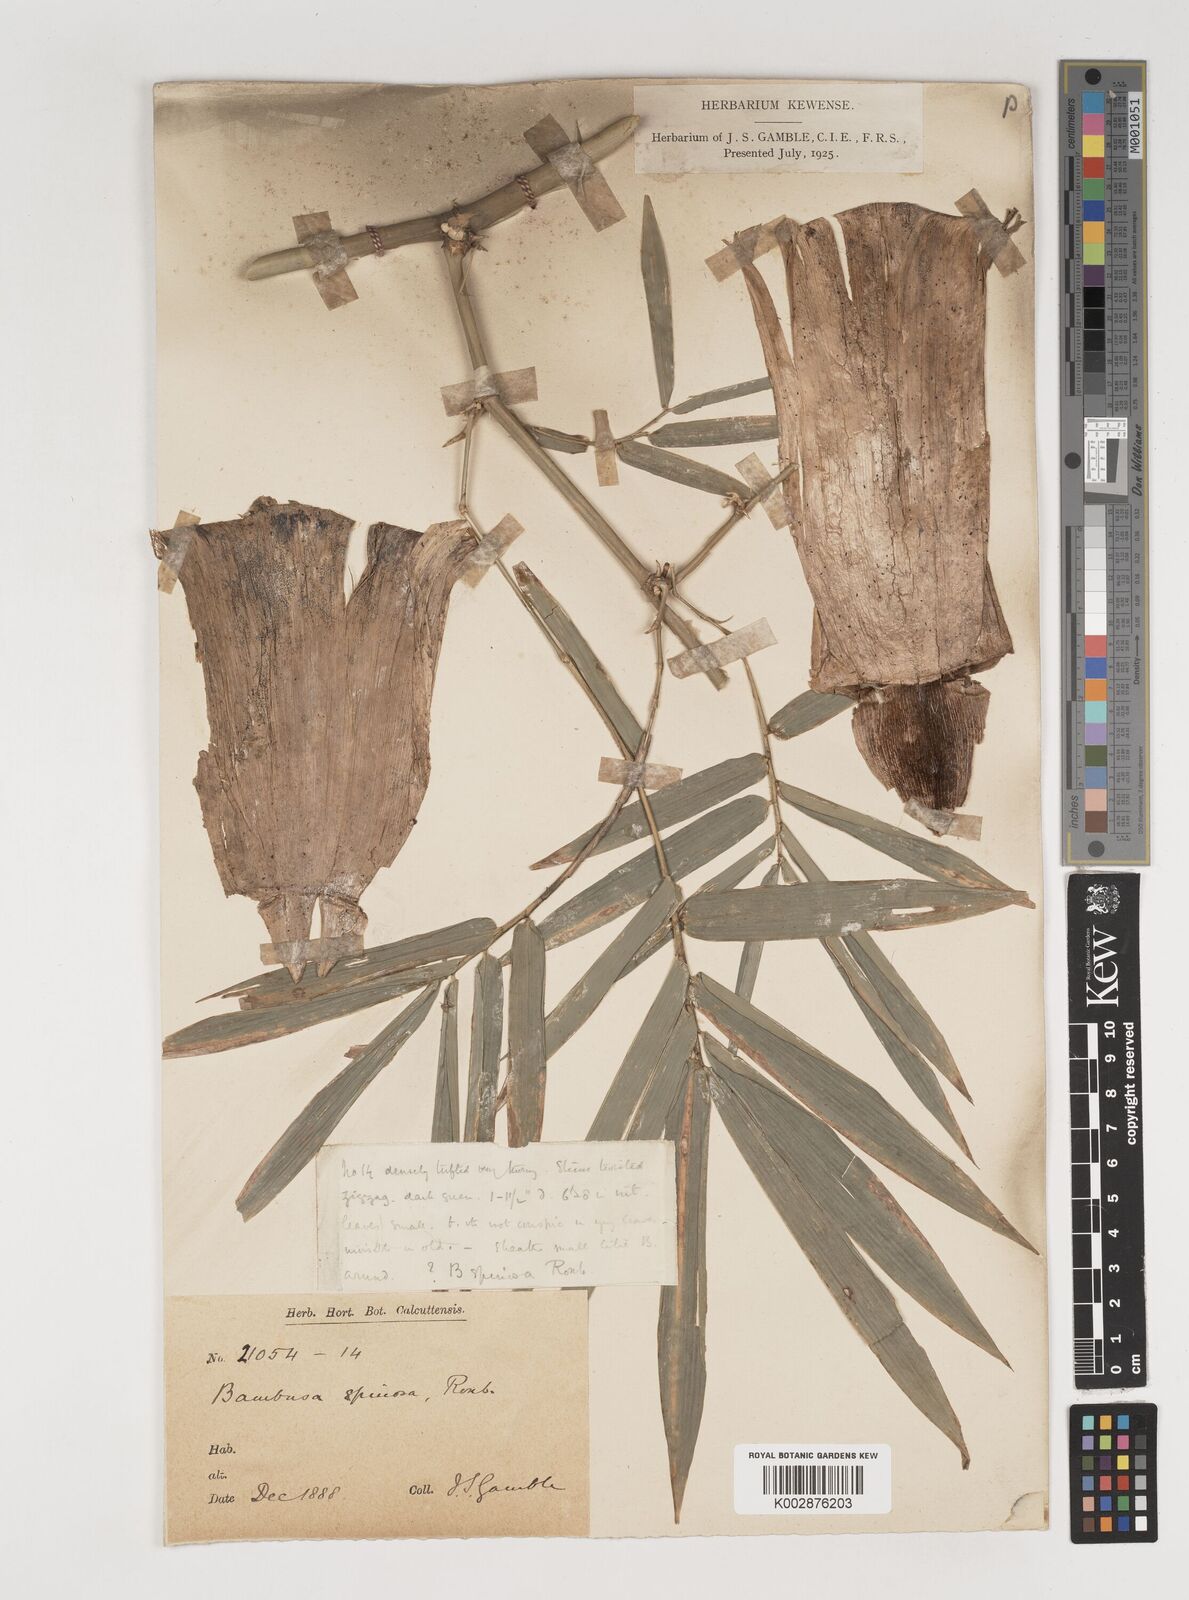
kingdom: Plantae
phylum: Tracheophyta
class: Liliopsida
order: Poales
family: Poaceae
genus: Bambusa
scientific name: Bambusa bambos
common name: Indian thorny bamboo
